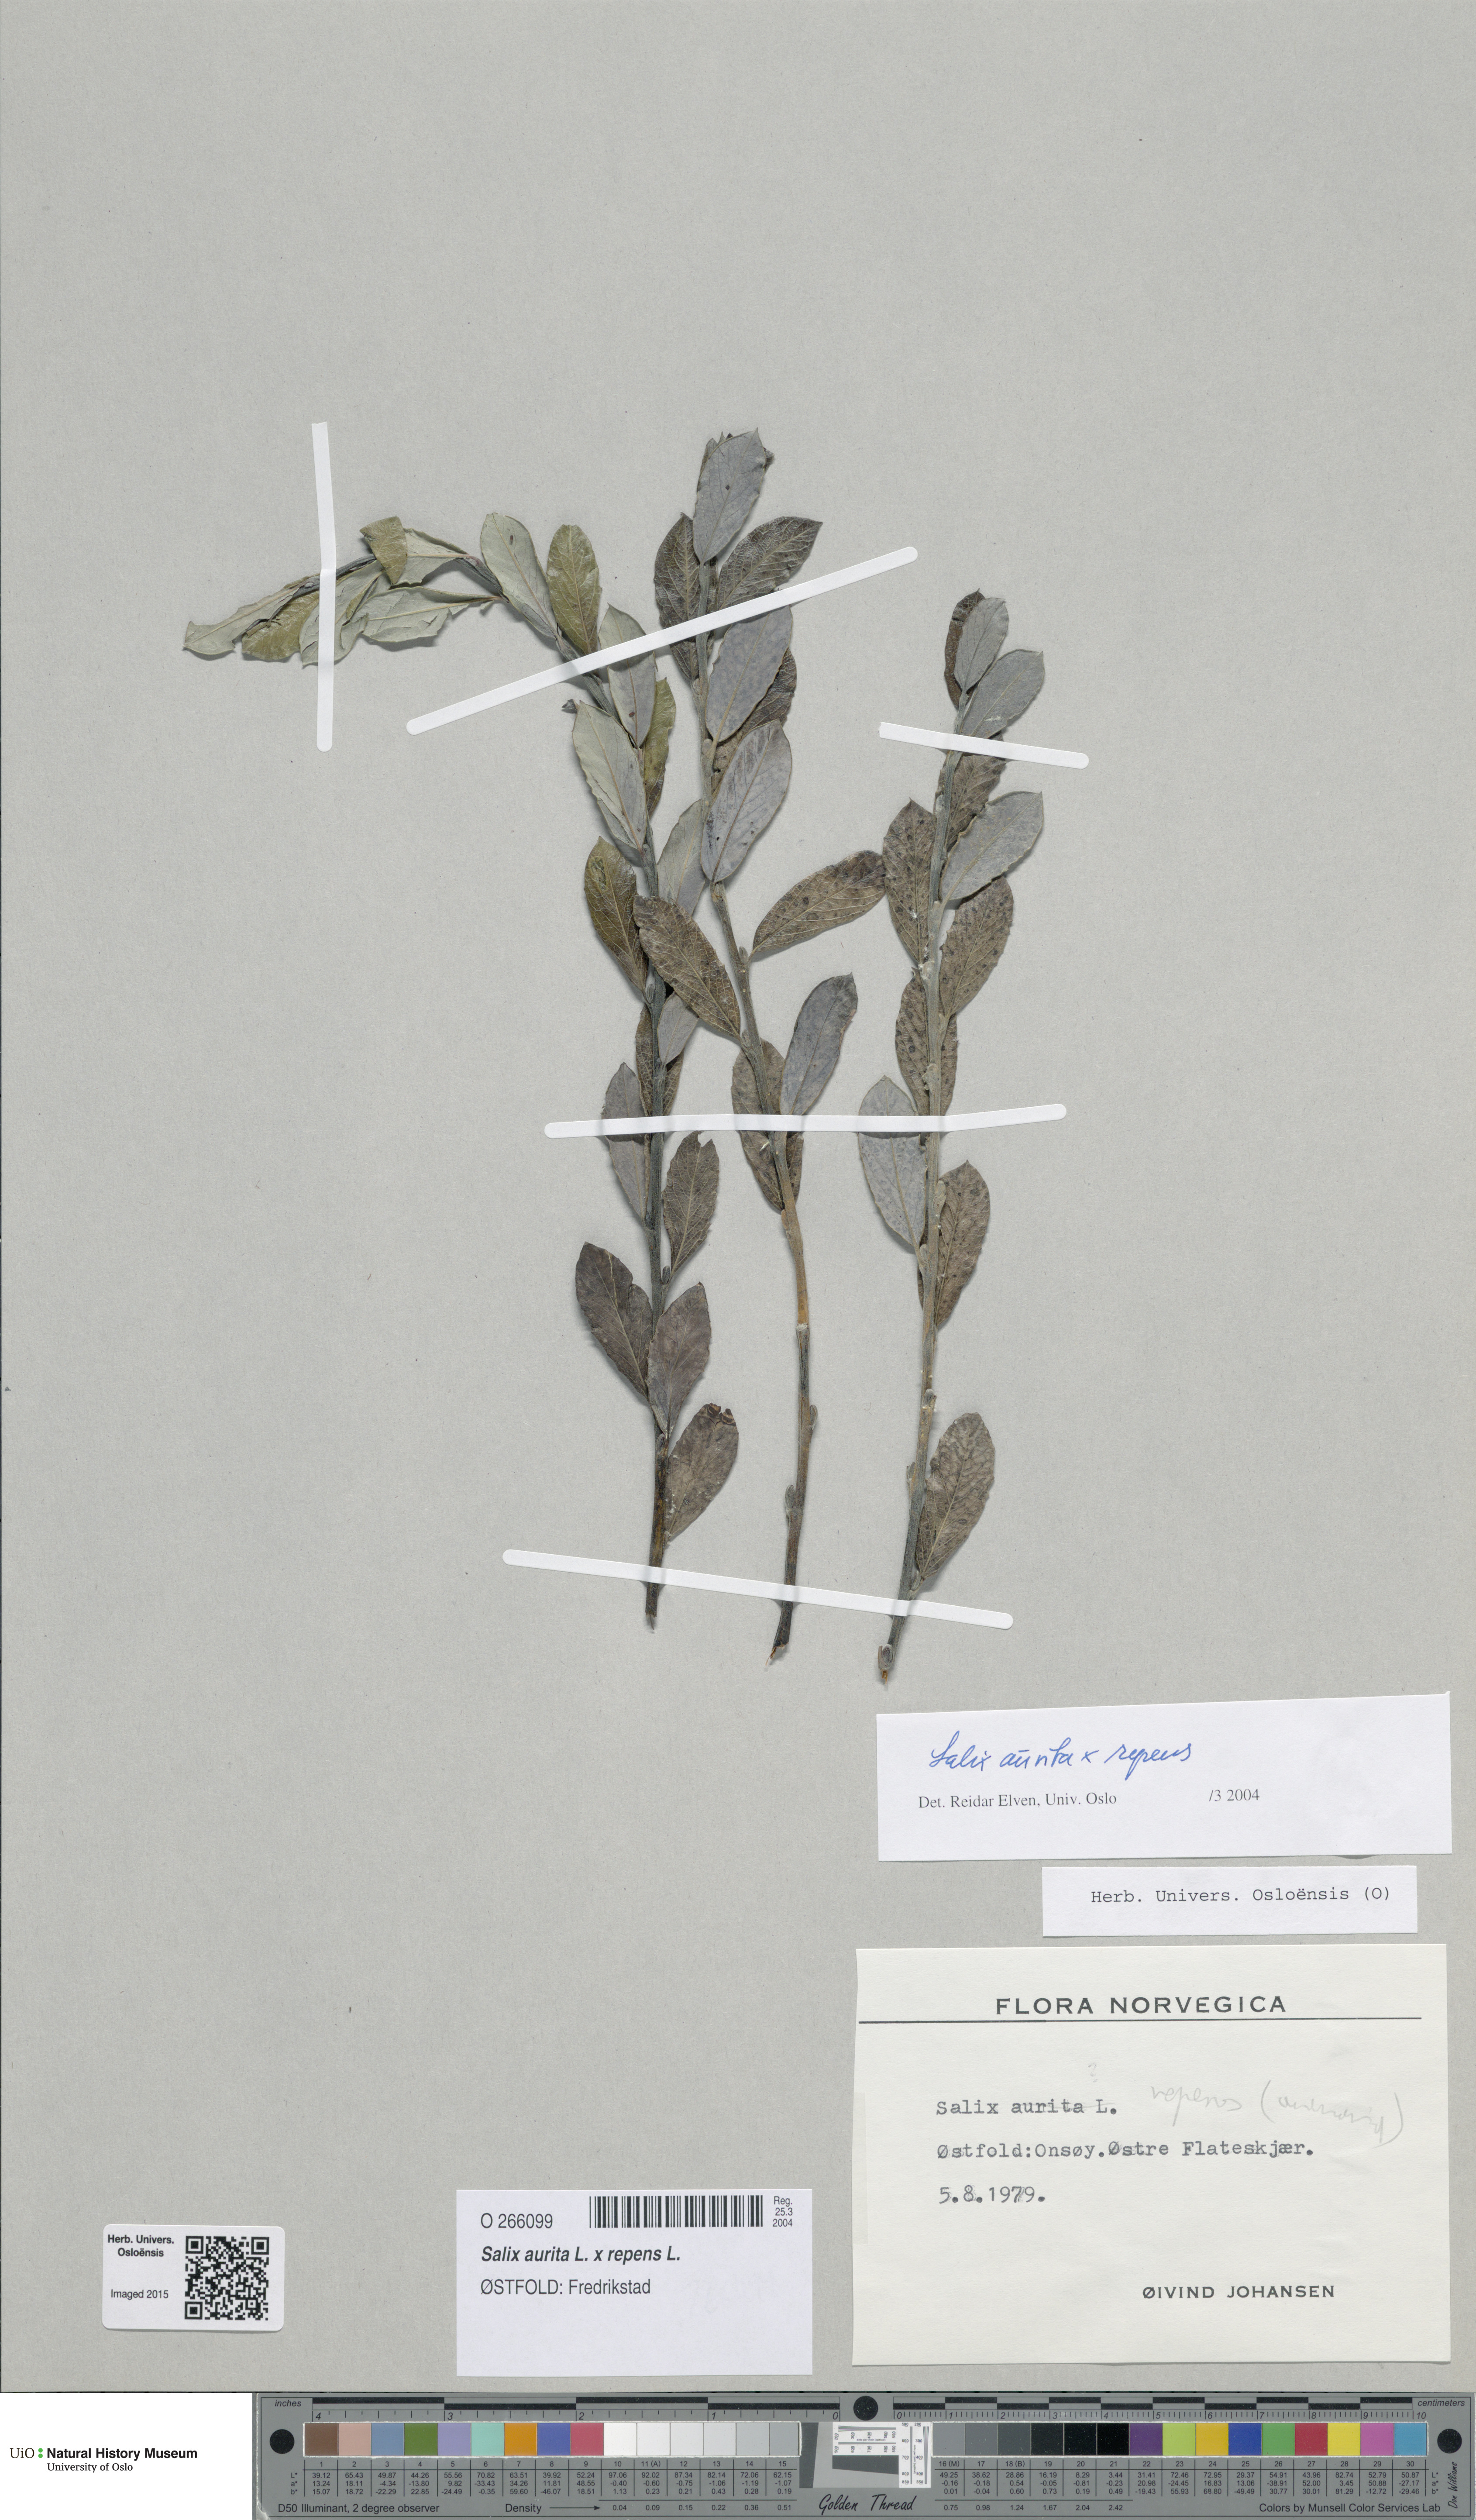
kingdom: Plantae
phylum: Tracheophyta
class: Magnoliopsida
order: Malpighiales
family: Salicaceae
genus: Salix
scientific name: Salix
